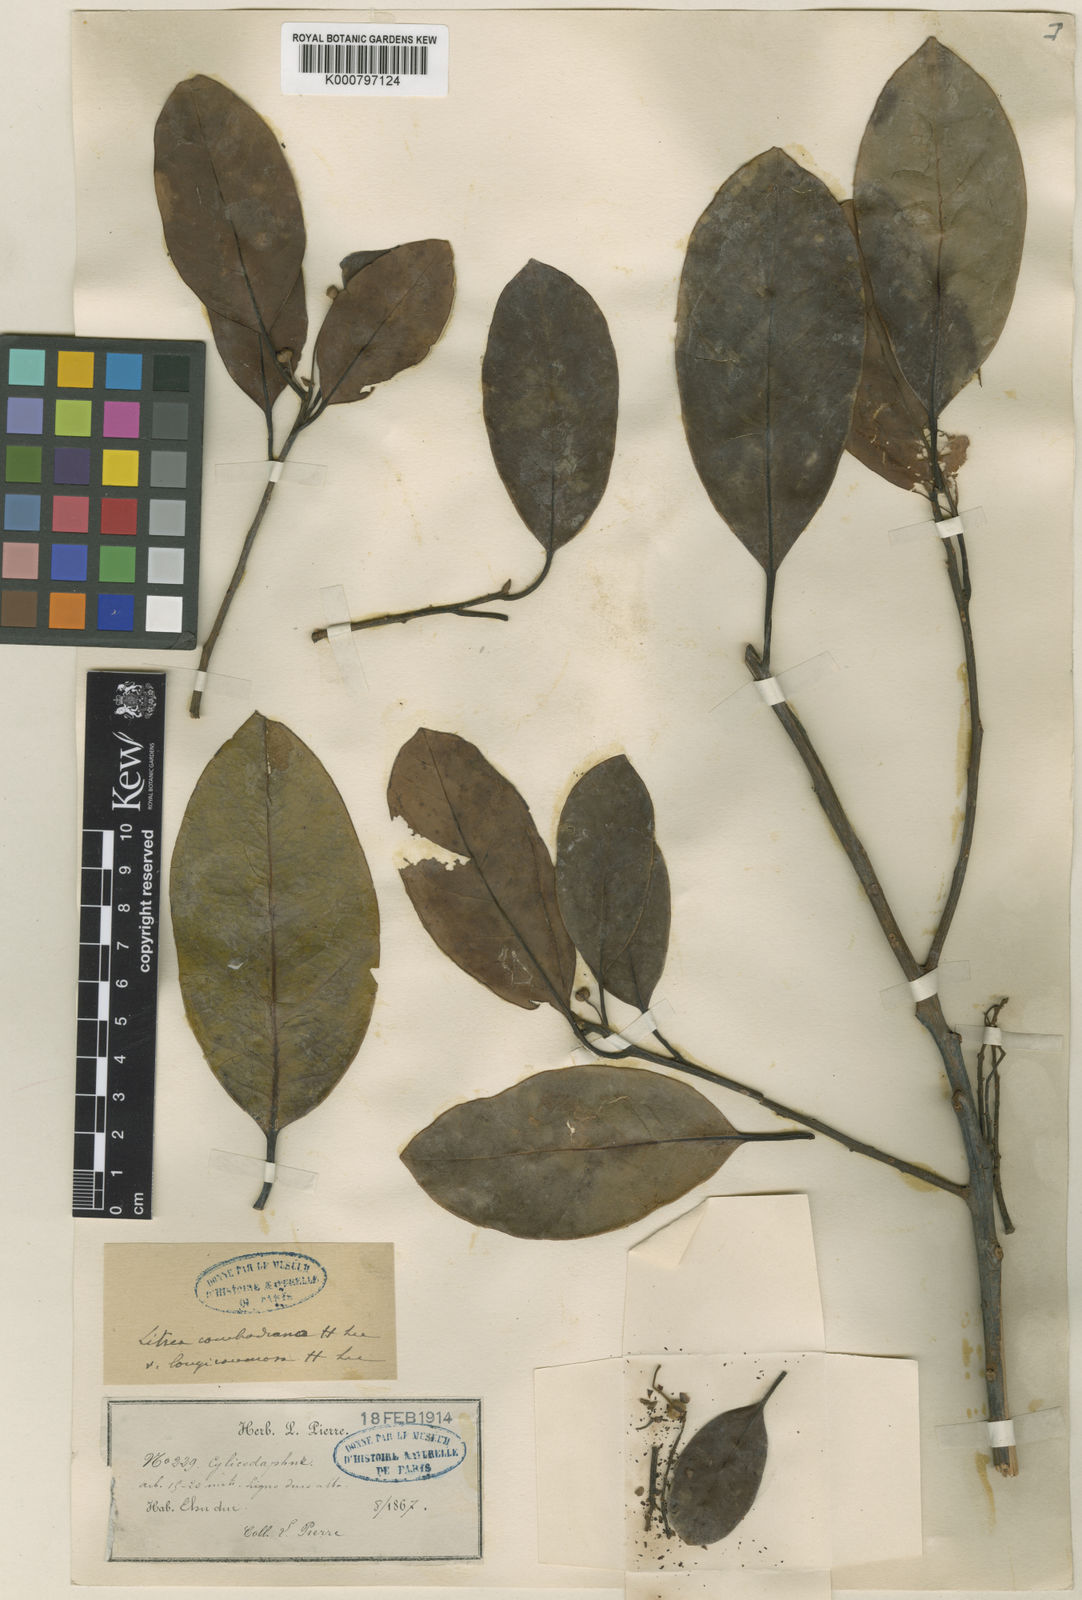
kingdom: Plantae
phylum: Tracheophyta
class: Magnoliopsida
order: Laurales
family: Lauraceae
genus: Litsea
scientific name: Litsea cambodiana
